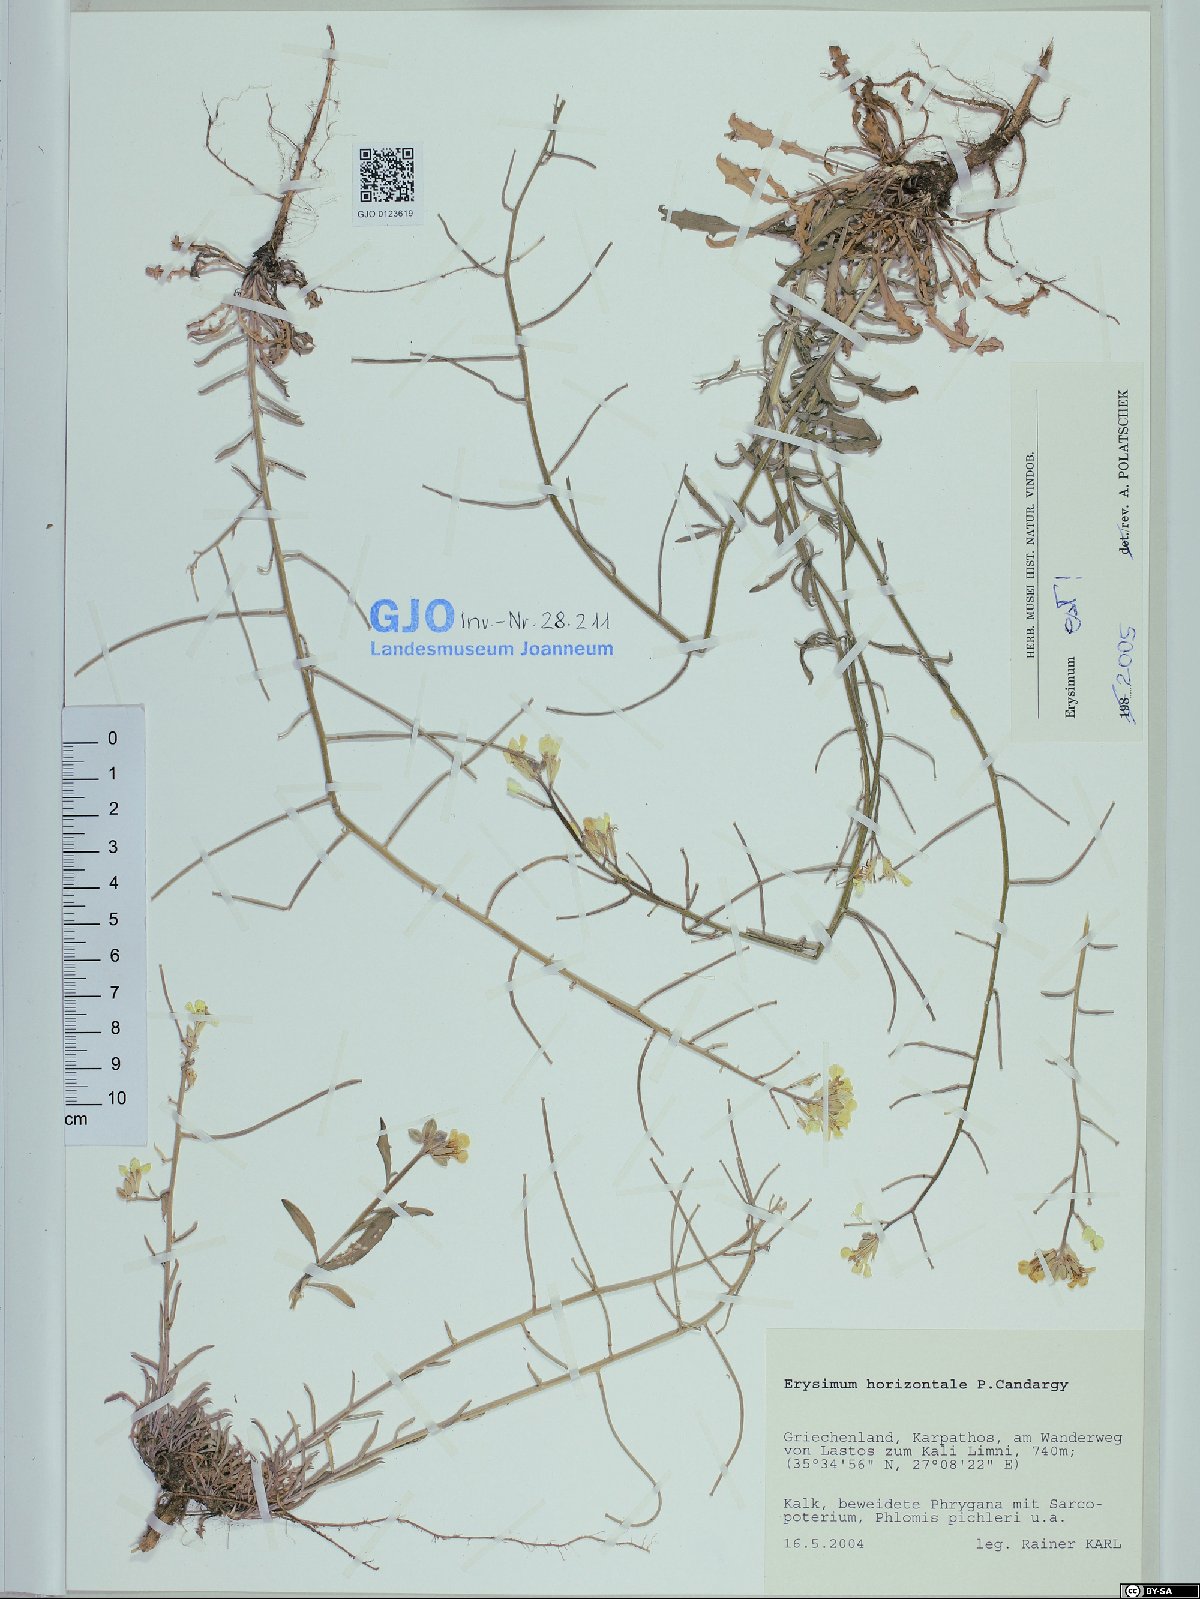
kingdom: Plantae
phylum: Tracheophyta
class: Magnoliopsida
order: Brassicales
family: Brassicaceae
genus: Erysimum
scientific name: Erysimum horizontale
